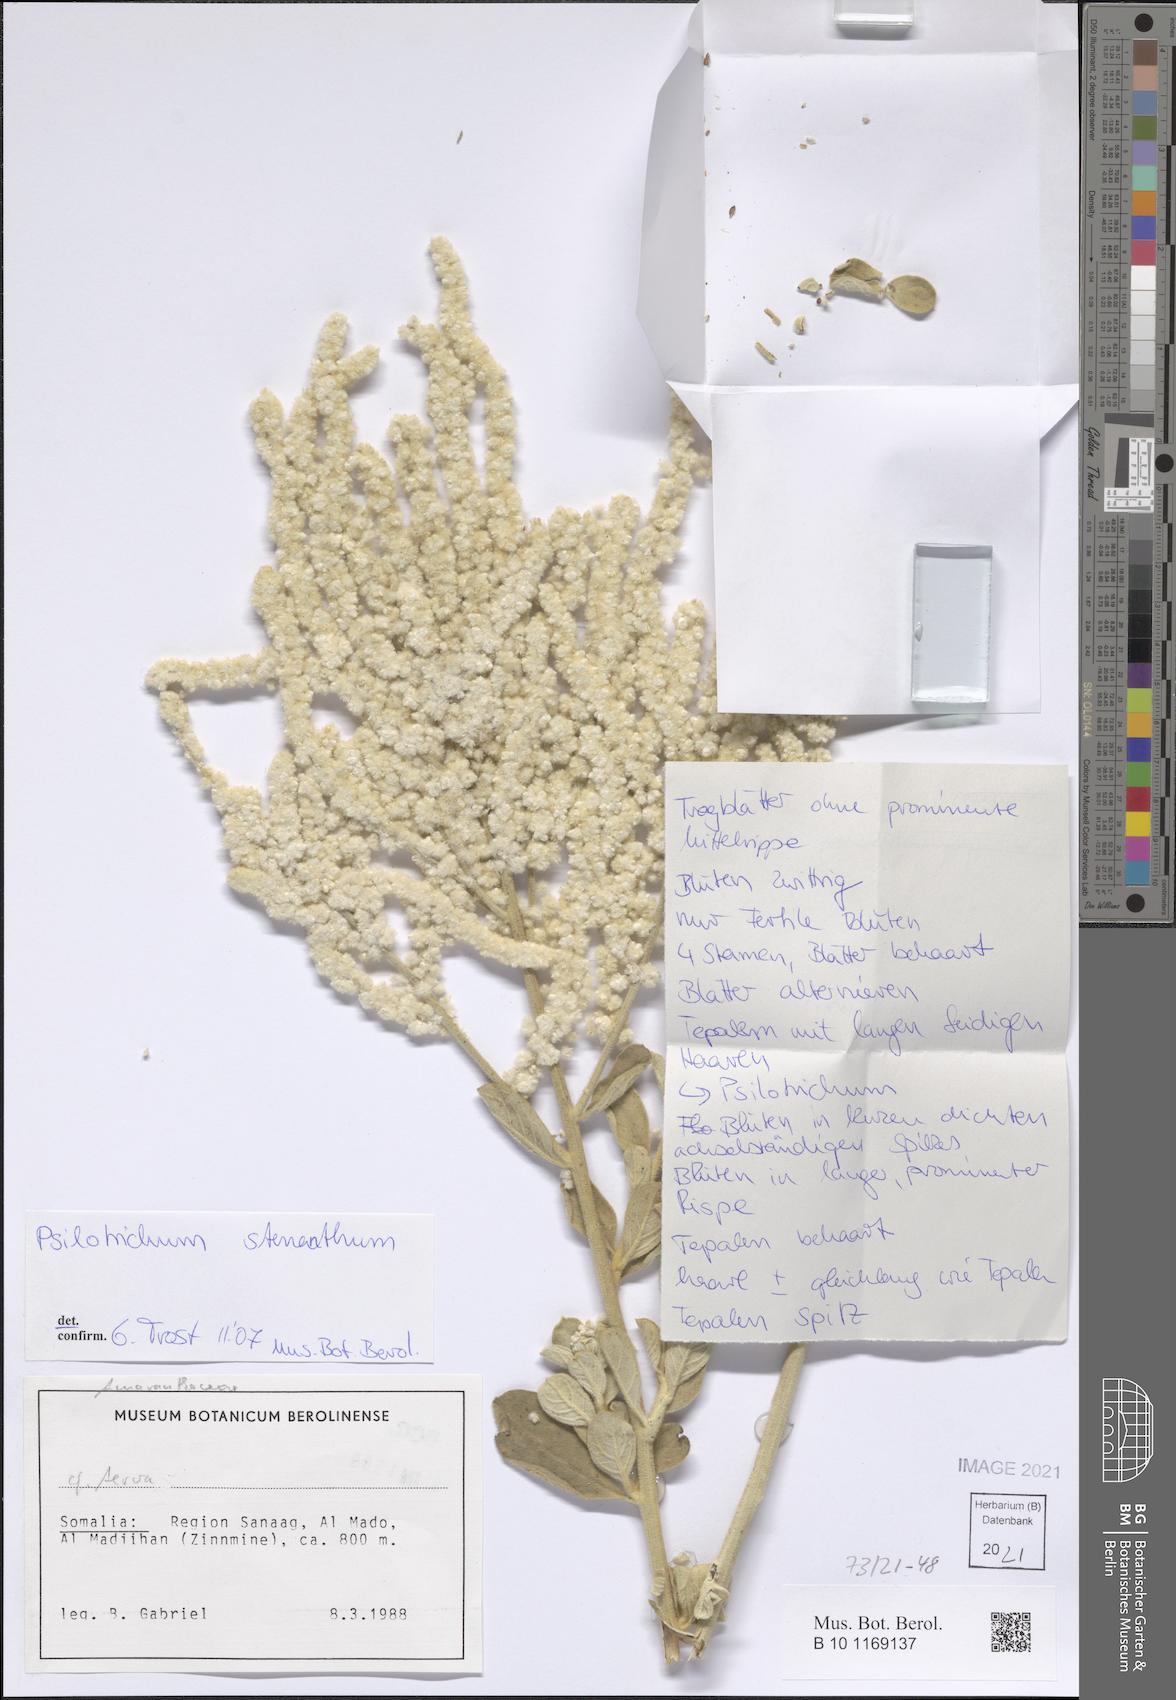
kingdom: Plantae
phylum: Tracheophyta
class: Magnoliopsida
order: Caryophyllales
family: Amaranthaceae
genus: Psilotrichum
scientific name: Psilotrichum stenanthum
